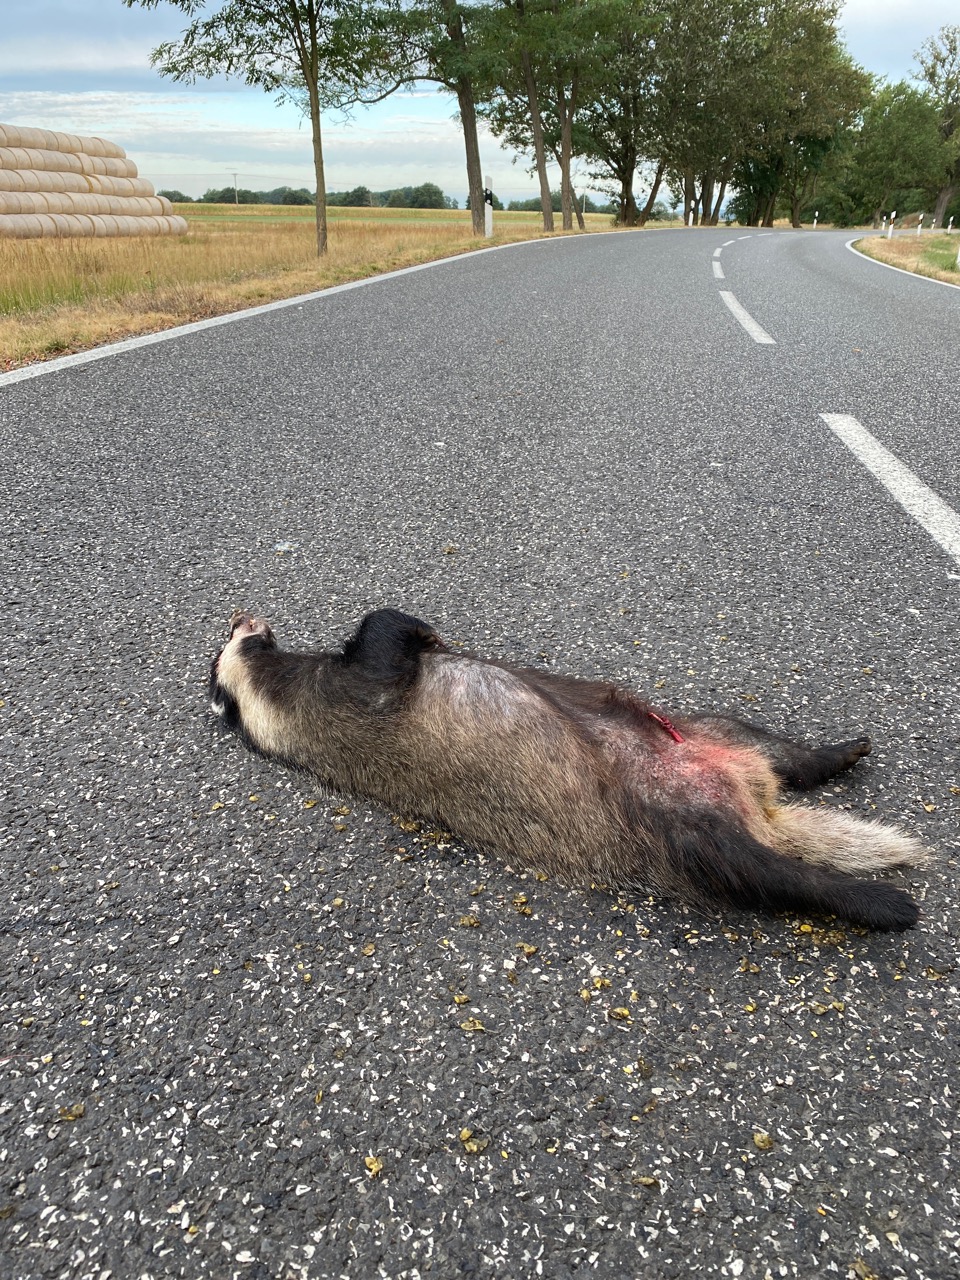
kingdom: Animalia
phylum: Chordata
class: Mammalia
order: Carnivora
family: Mustelidae
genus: Meles
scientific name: Meles meles
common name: Eurasian badger
